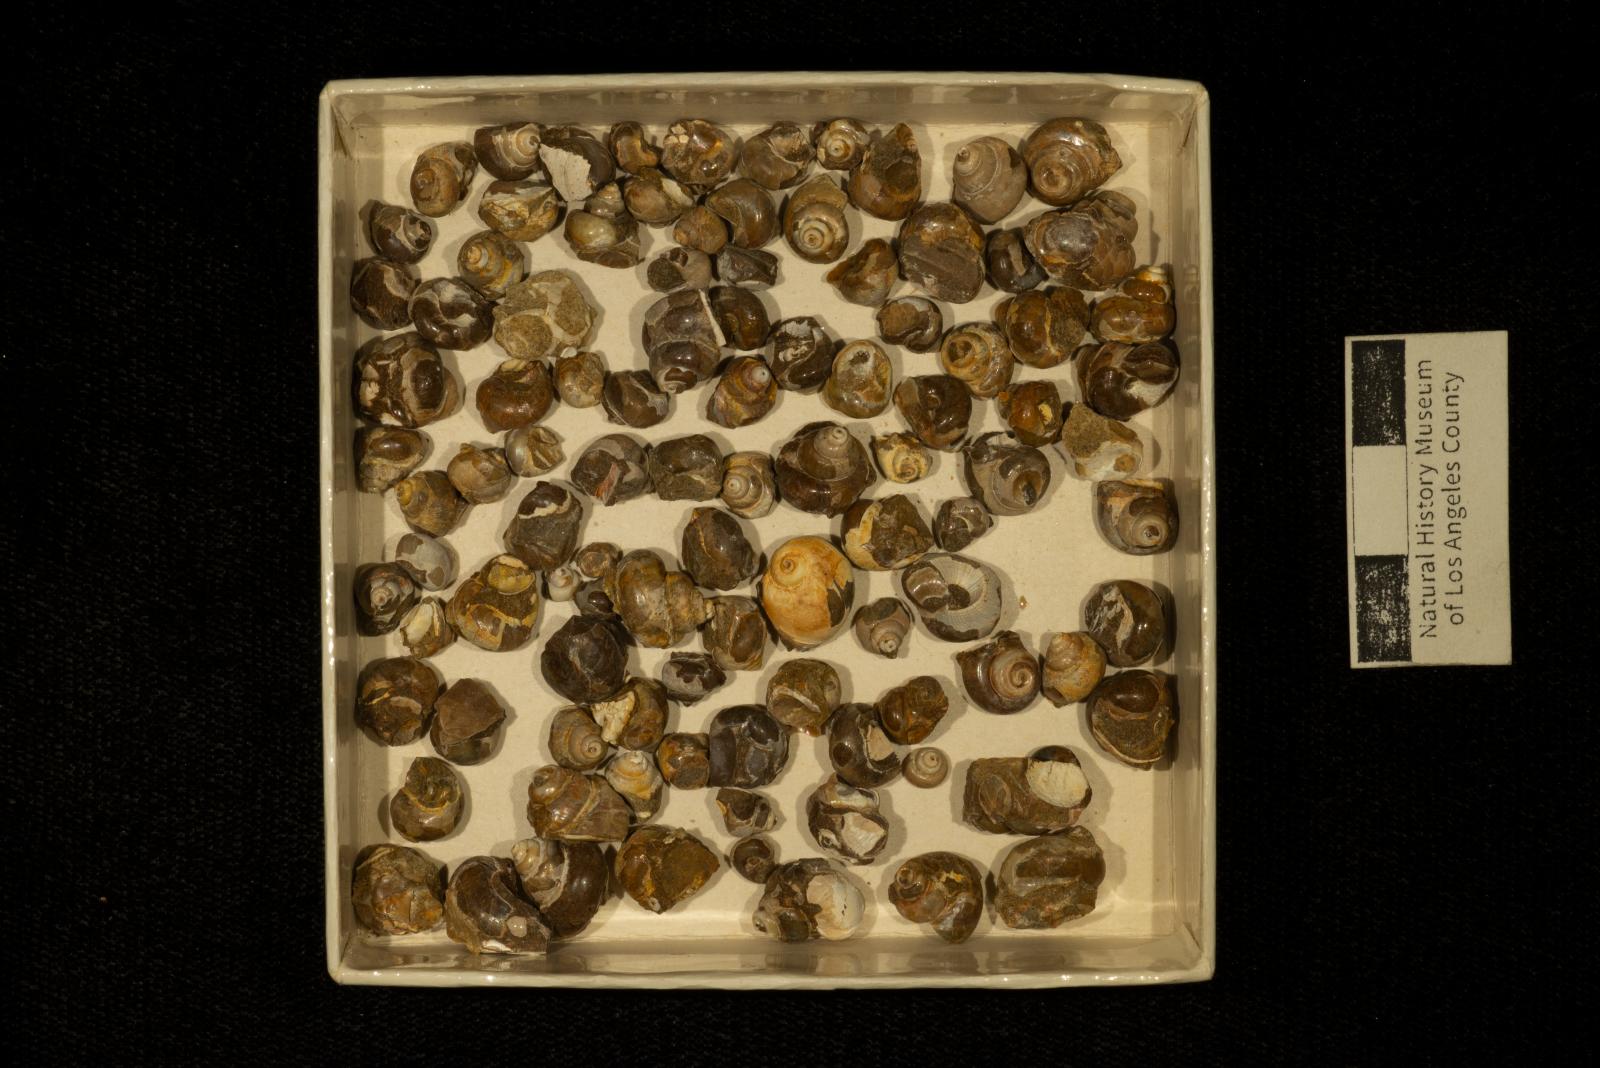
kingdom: Animalia
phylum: Mollusca
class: Gastropoda
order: Trochida
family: Turbinidae
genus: Igonoia
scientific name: Igonoia
